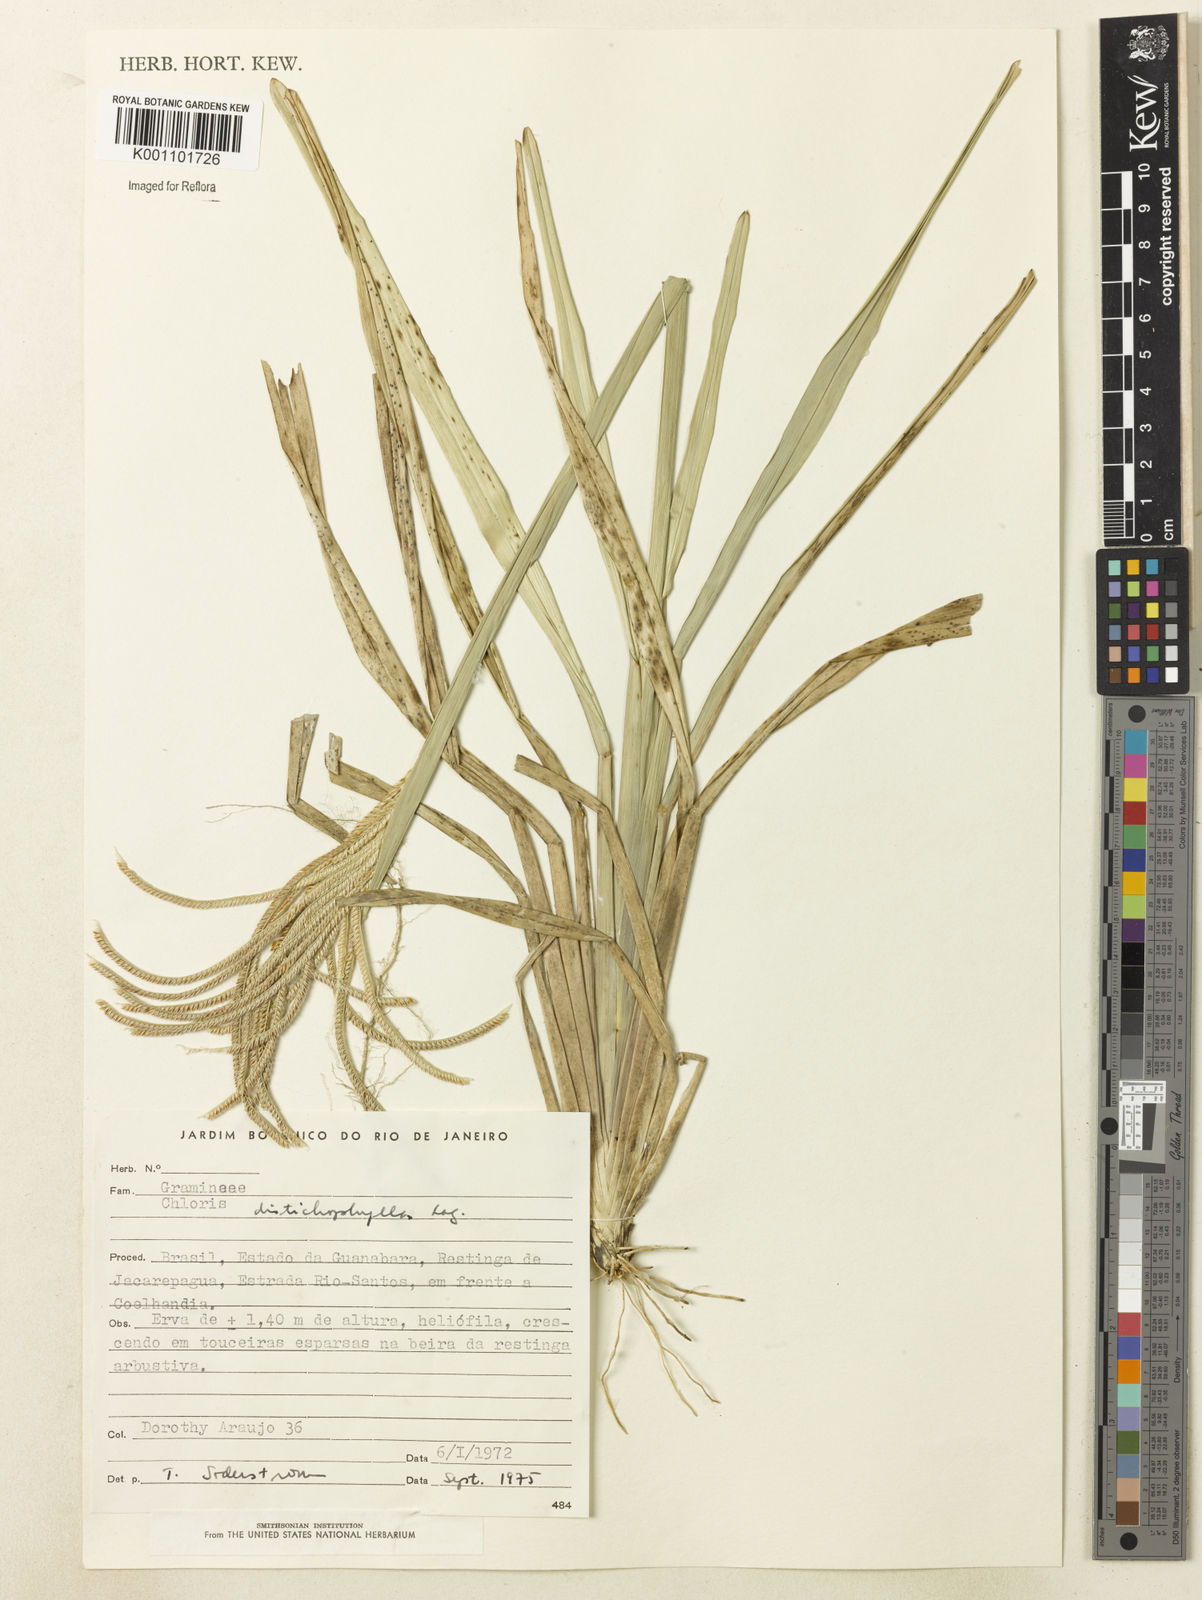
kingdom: Plantae
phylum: Tracheophyta
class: Liliopsida
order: Poales
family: Poaceae
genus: Eustachys
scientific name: Eustachys distichophylla
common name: Weeping fingergrass
